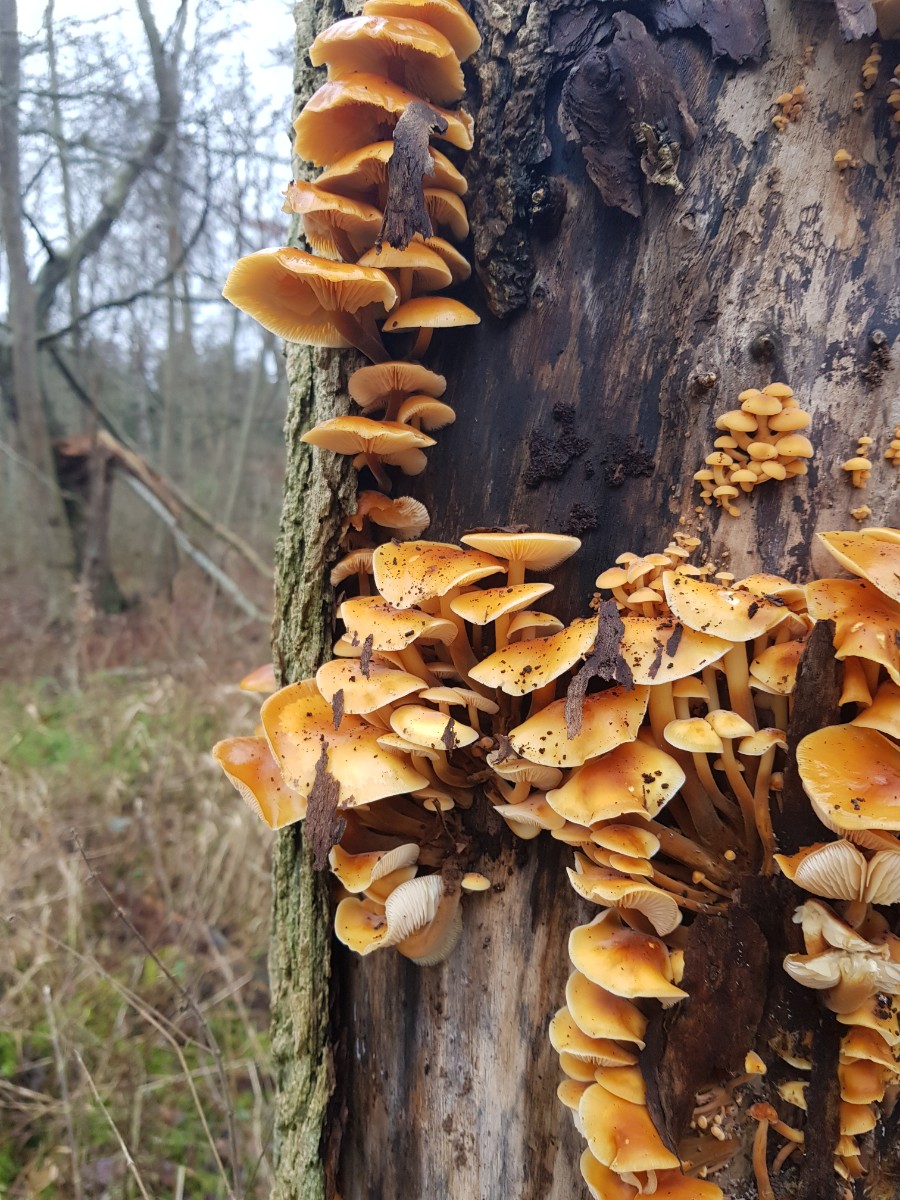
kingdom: Fungi
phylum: Basidiomycota
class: Agaricomycetes
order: Agaricales
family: Physalacriaceae
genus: Flammulina
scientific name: Flammulina velutipes
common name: gul fløjlsfod
